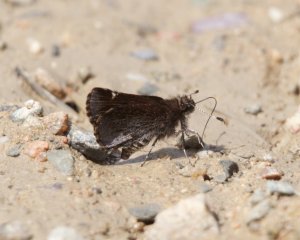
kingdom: Animalia
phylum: Arthropoda
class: Insecta
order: Lepidoptera
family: Hesperiidae
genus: Mastor
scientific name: Mastor vialis
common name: Common Roadside-Skipper
